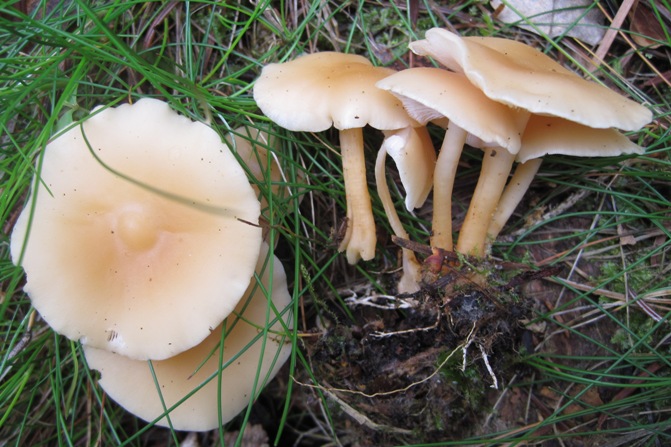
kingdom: Fungi
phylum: Basidiomycota
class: Agaricomycetes
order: Agaricales
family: Omphalotaceae
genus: Gymnopus
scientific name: Gymnopus aquosus
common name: bleg fladhat
